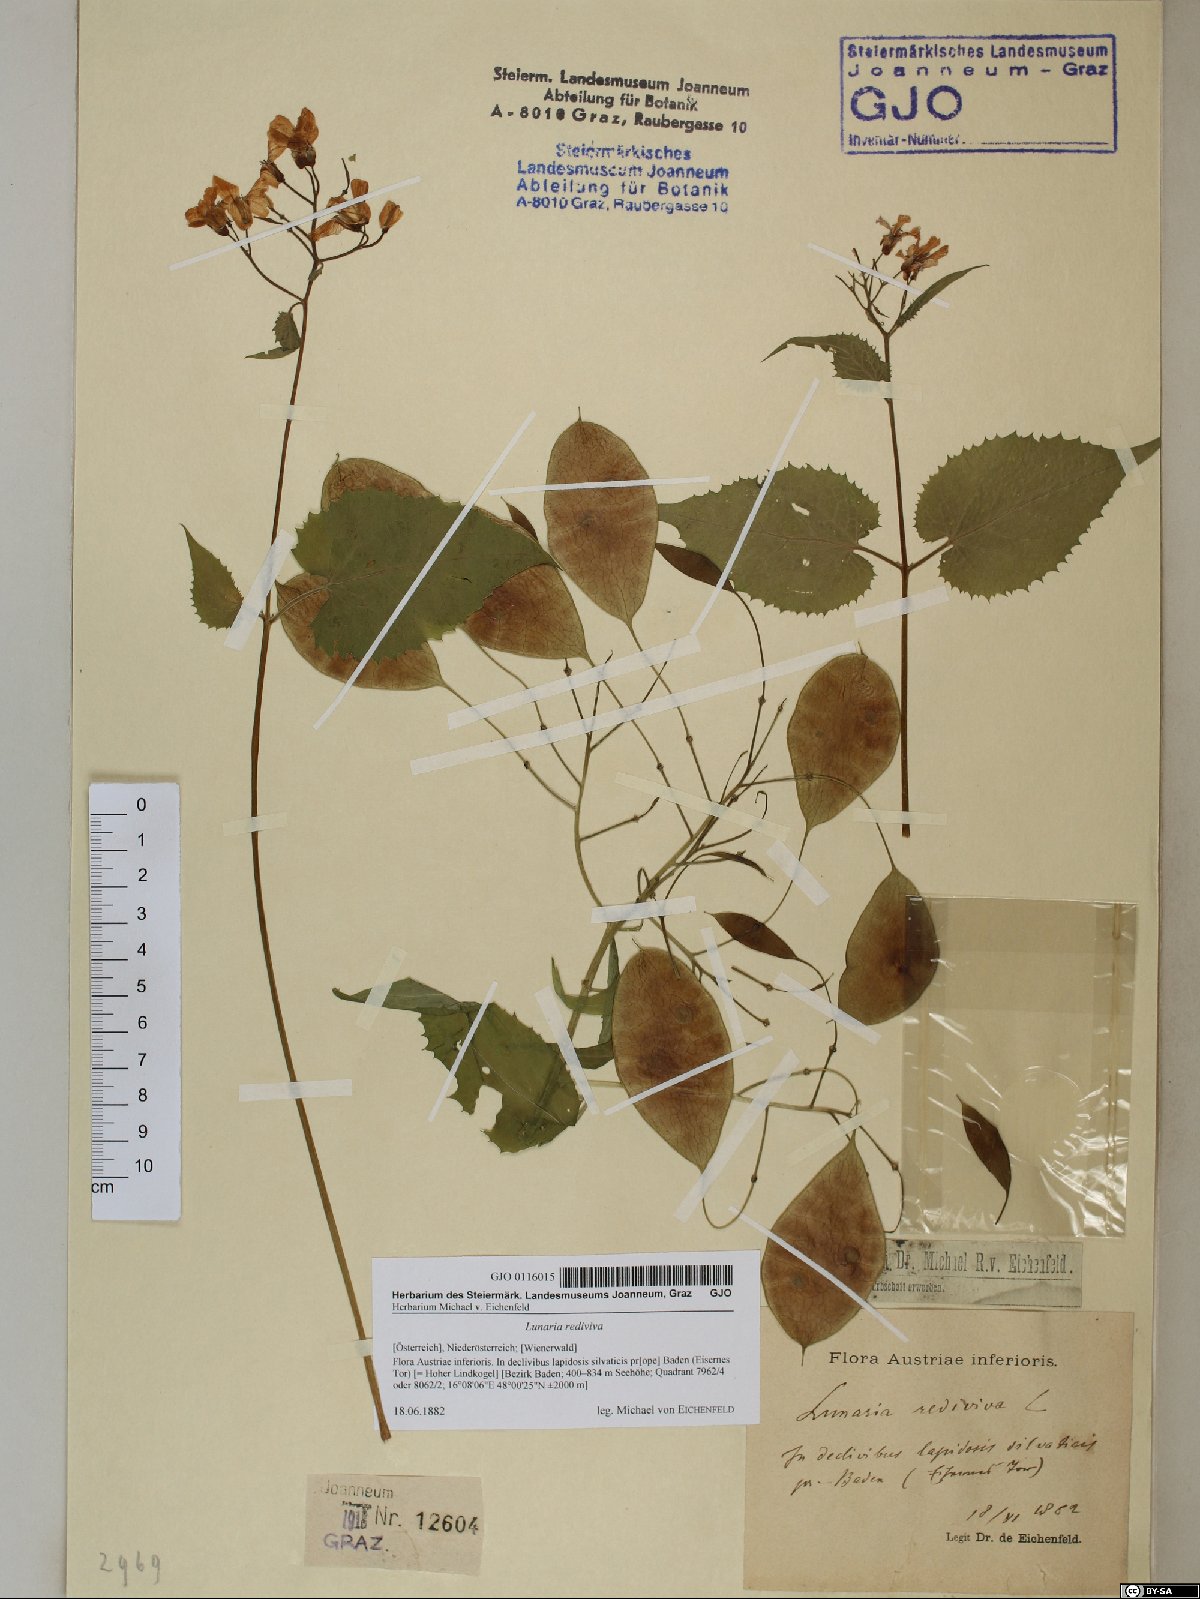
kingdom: Plantae
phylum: Tracheophyta
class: Magnoliopsida
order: Brassicales
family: Brassicaceae
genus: Lunaria
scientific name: Lunaria rediviva
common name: Perennial honesty
